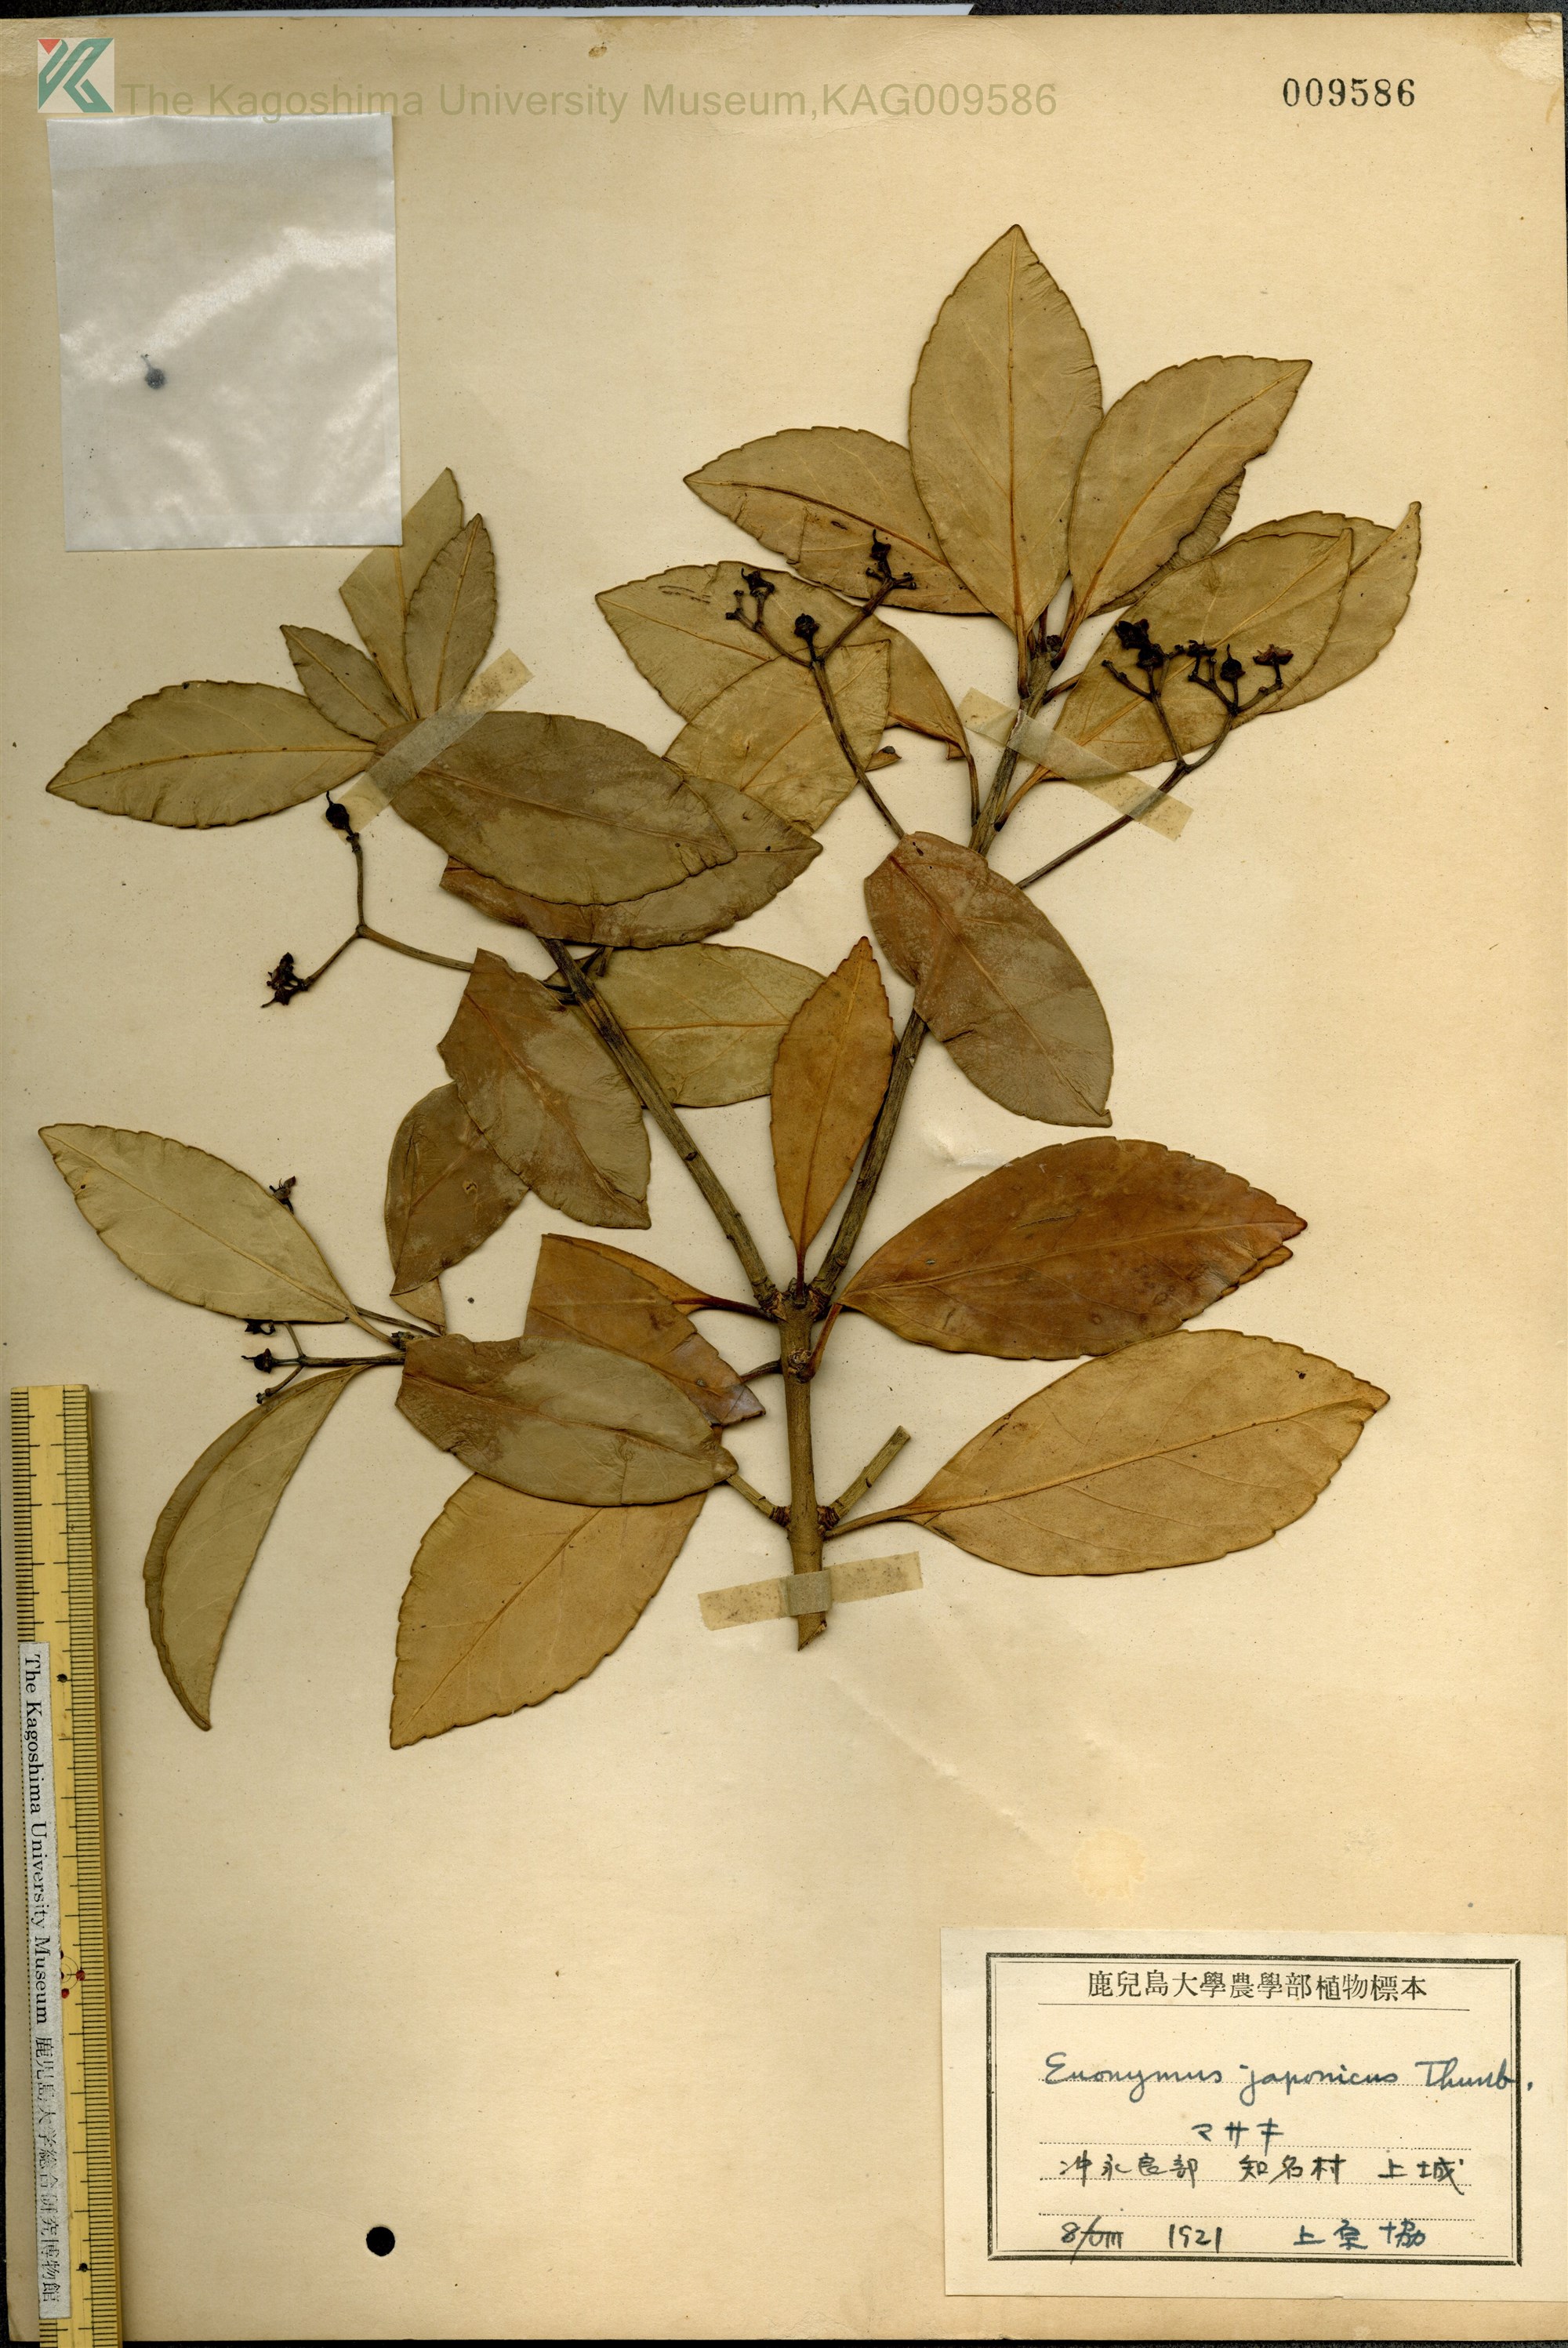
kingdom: Plantae
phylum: Tracheophyta
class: Magnoliopsida
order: Celastrales
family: Celastraceae
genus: Euonymus
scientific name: Euonymus japonicus
